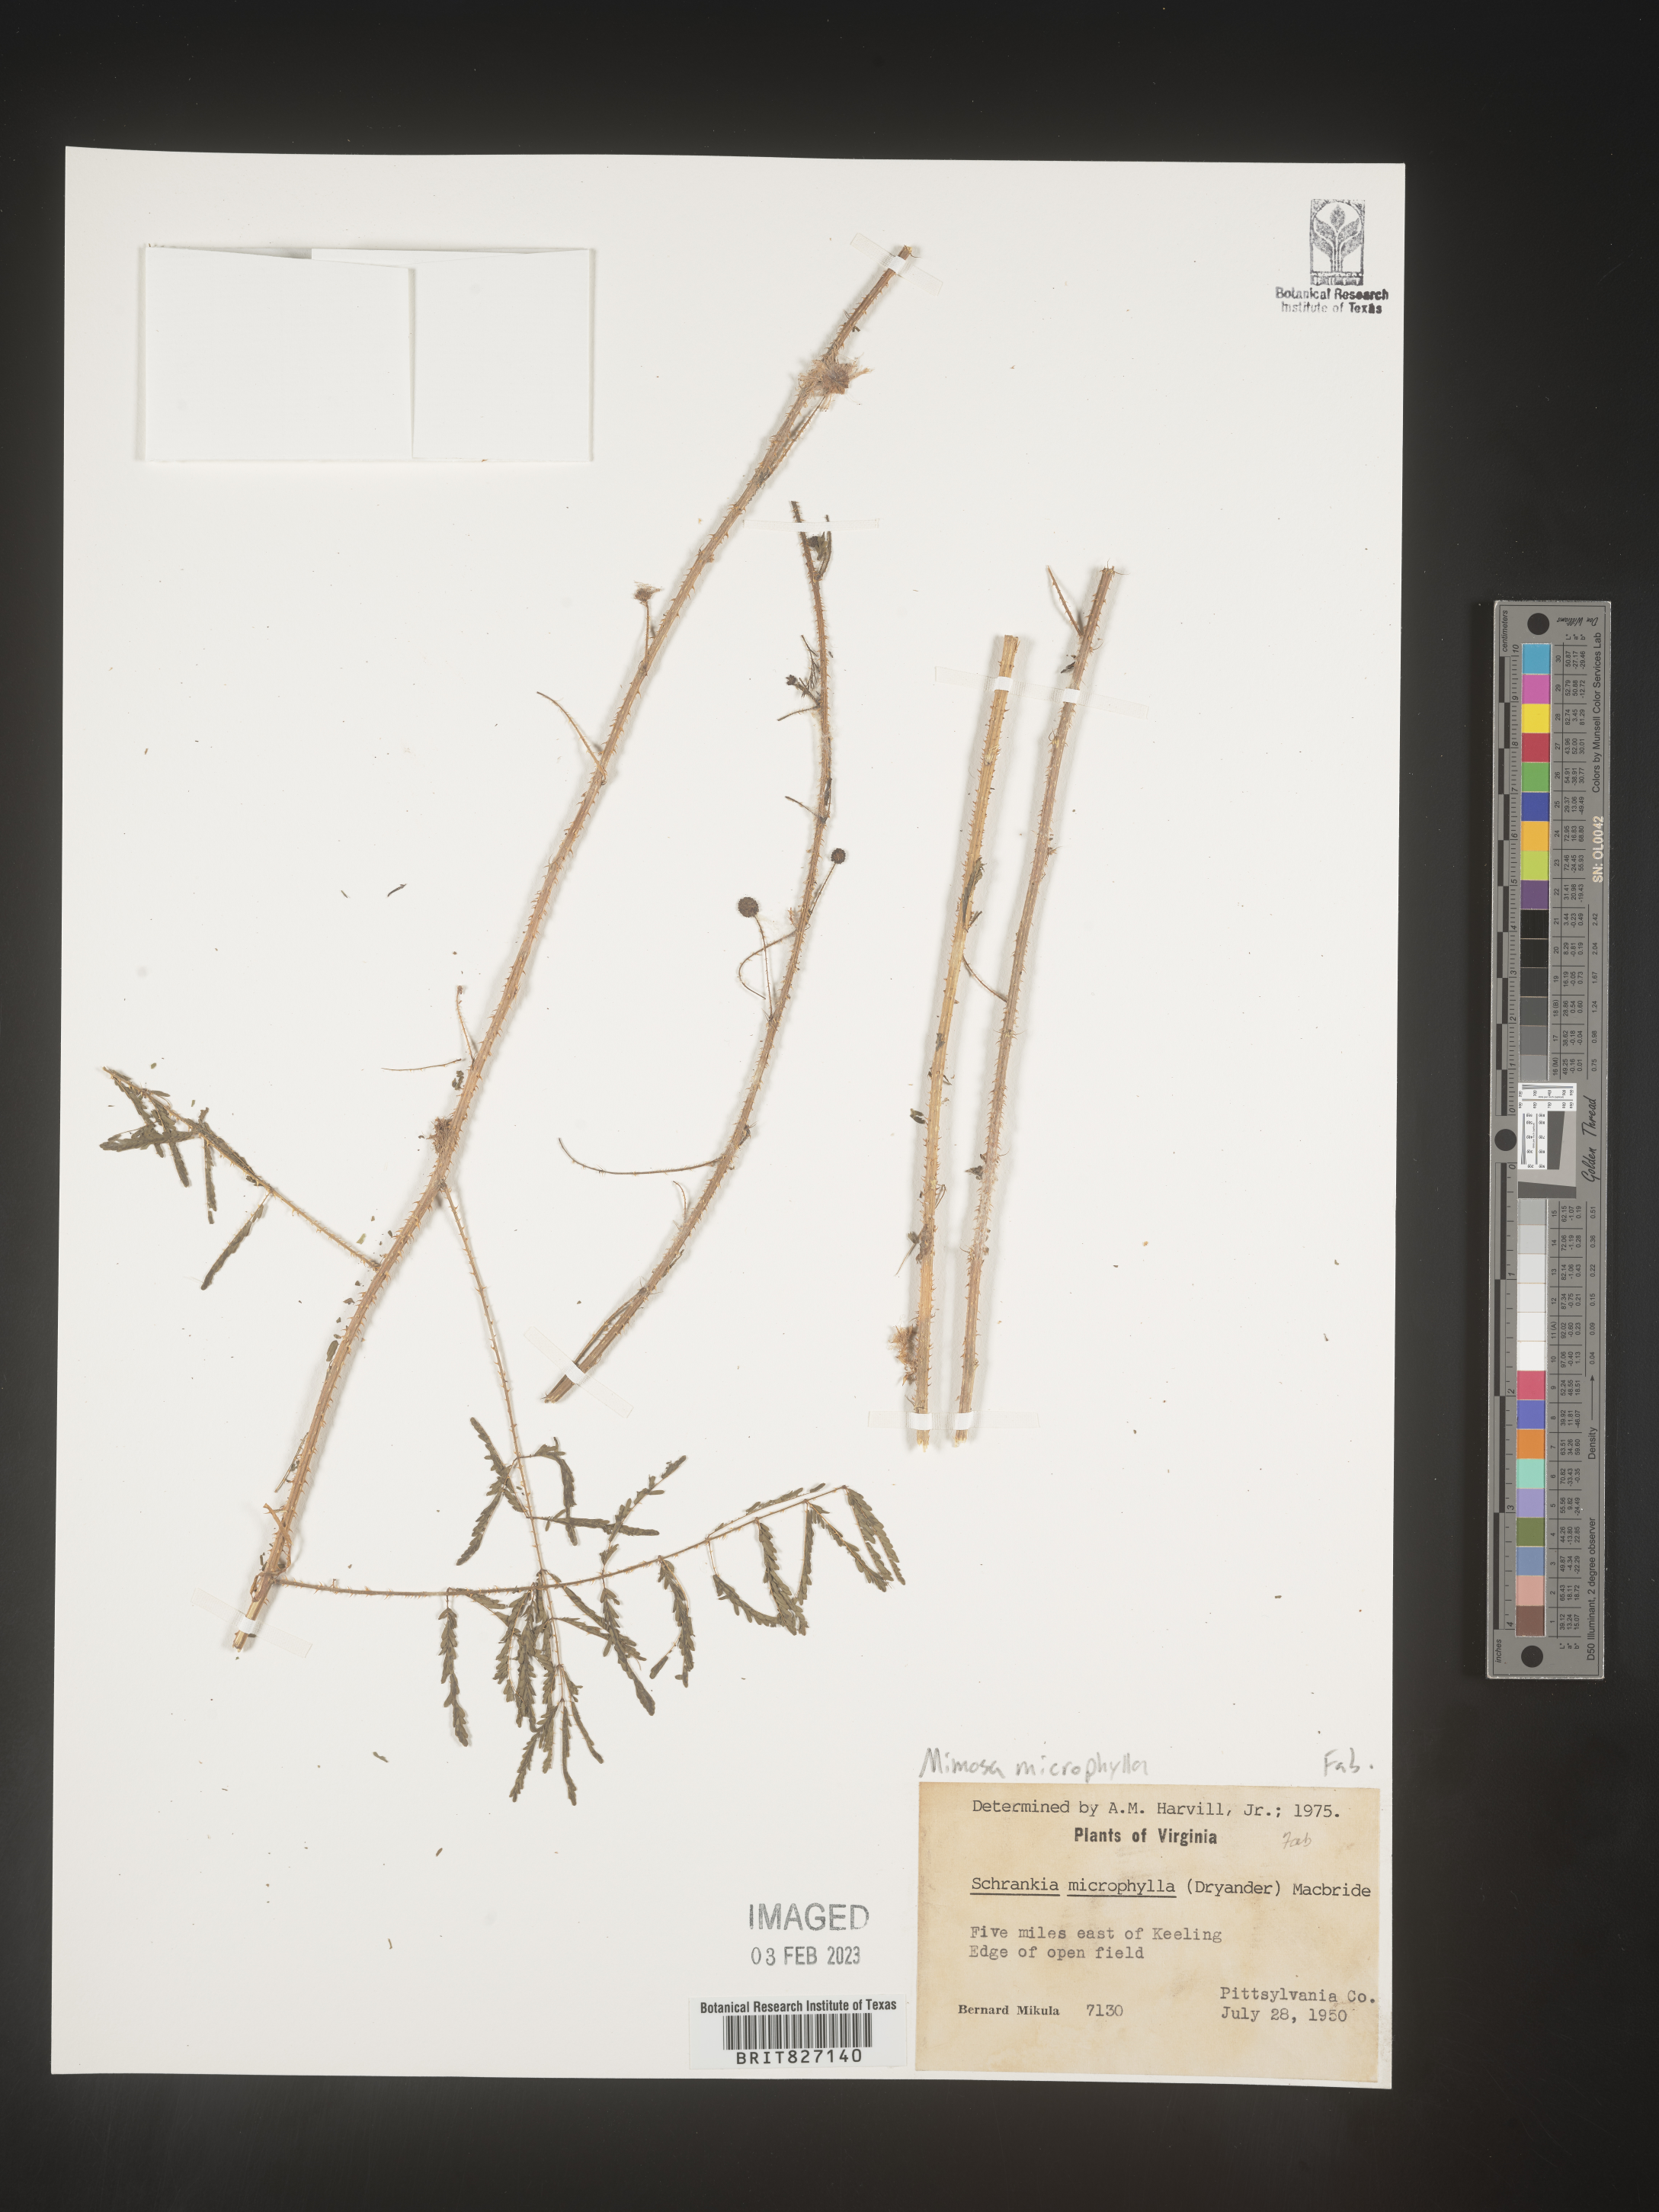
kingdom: Plantae
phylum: Tracheophyta
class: Magnoliopsida
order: Fabales
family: Fabaceae
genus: Mimosa
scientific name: Mimosa quadrivalvis
